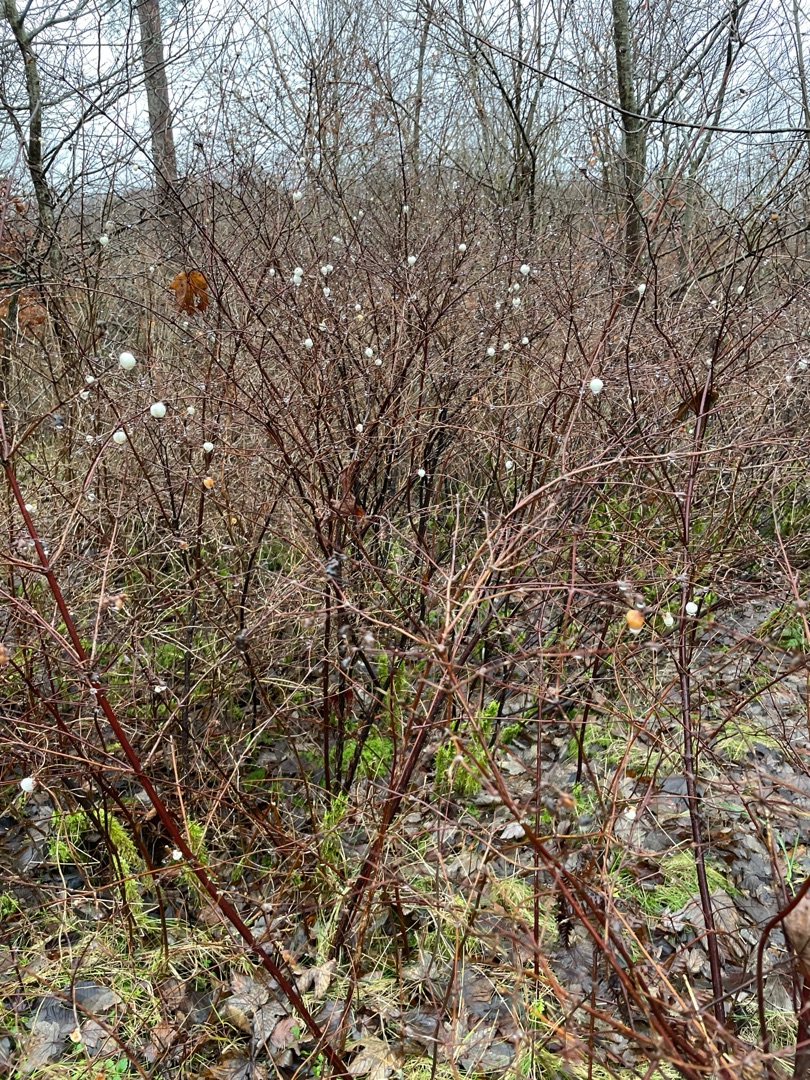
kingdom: Plantae
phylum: Tracheophyta
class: Magnoliopsida
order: Dipsacales
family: Caprifoliaceae
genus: Symphoricarpos
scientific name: Symphoricarpos albus
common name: Almindelig snebær
